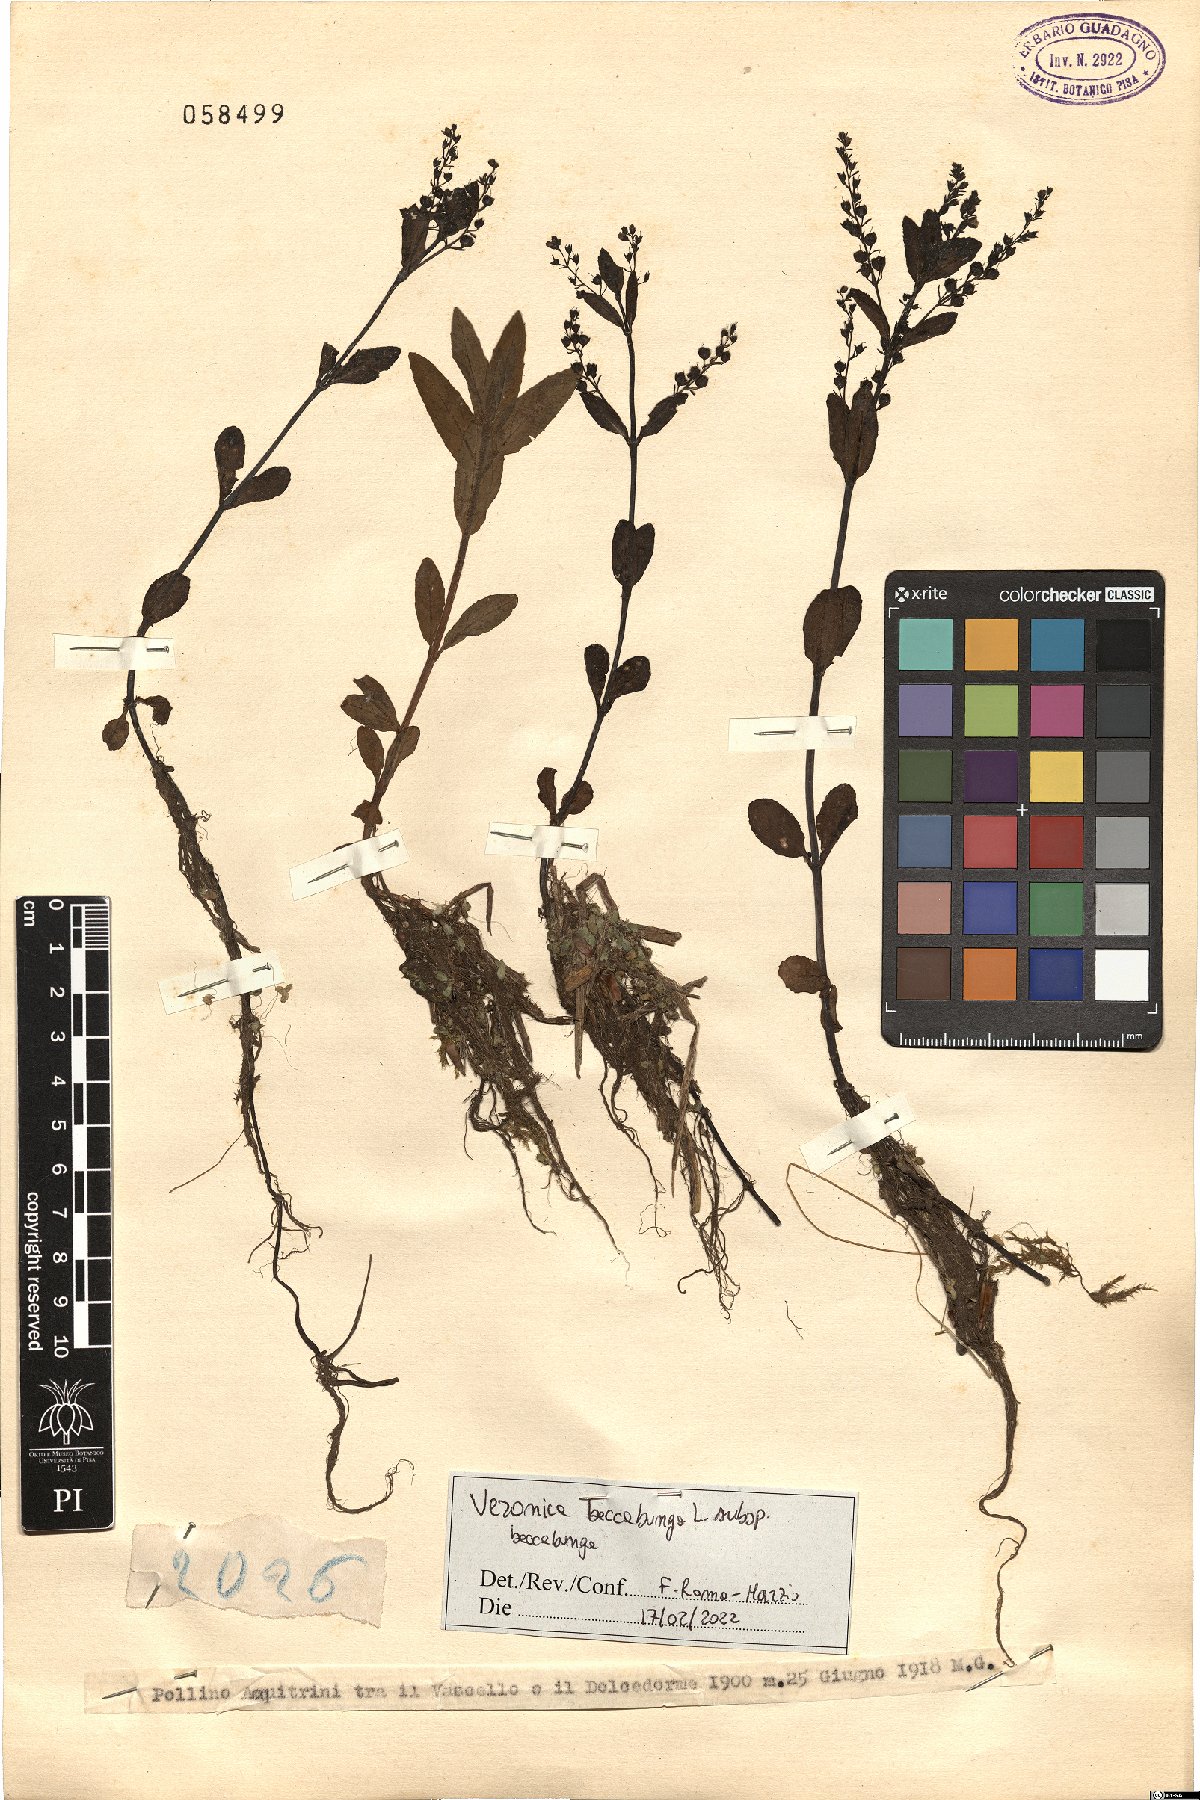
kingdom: Plantae
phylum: Tracheophyta
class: Magnoliopsida
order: Lamiales
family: Plantaginaceae
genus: Veronica
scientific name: Veronica beccabunga
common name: Brooklime
